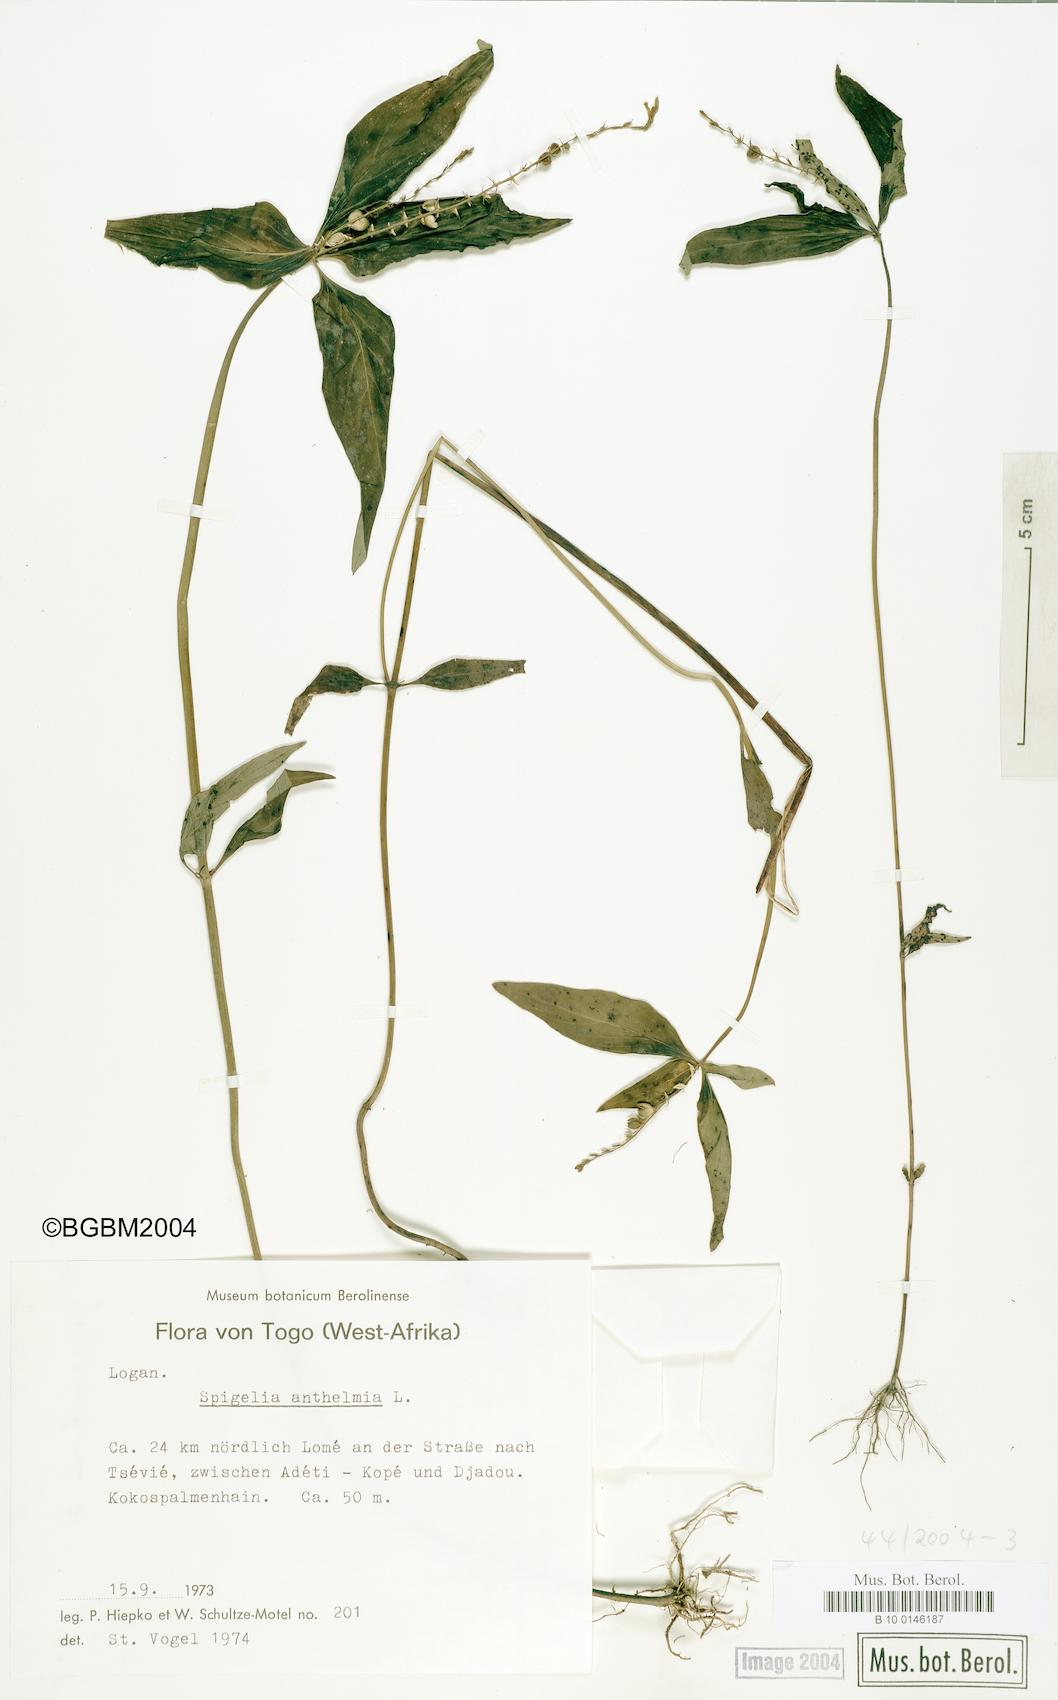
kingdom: Plantae
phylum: Tracheophyta
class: Magnoliopsida
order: Gentianales
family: Loganiaceae
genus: Spigelia
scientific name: Spigelia anthelmia
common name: West indian-pink
